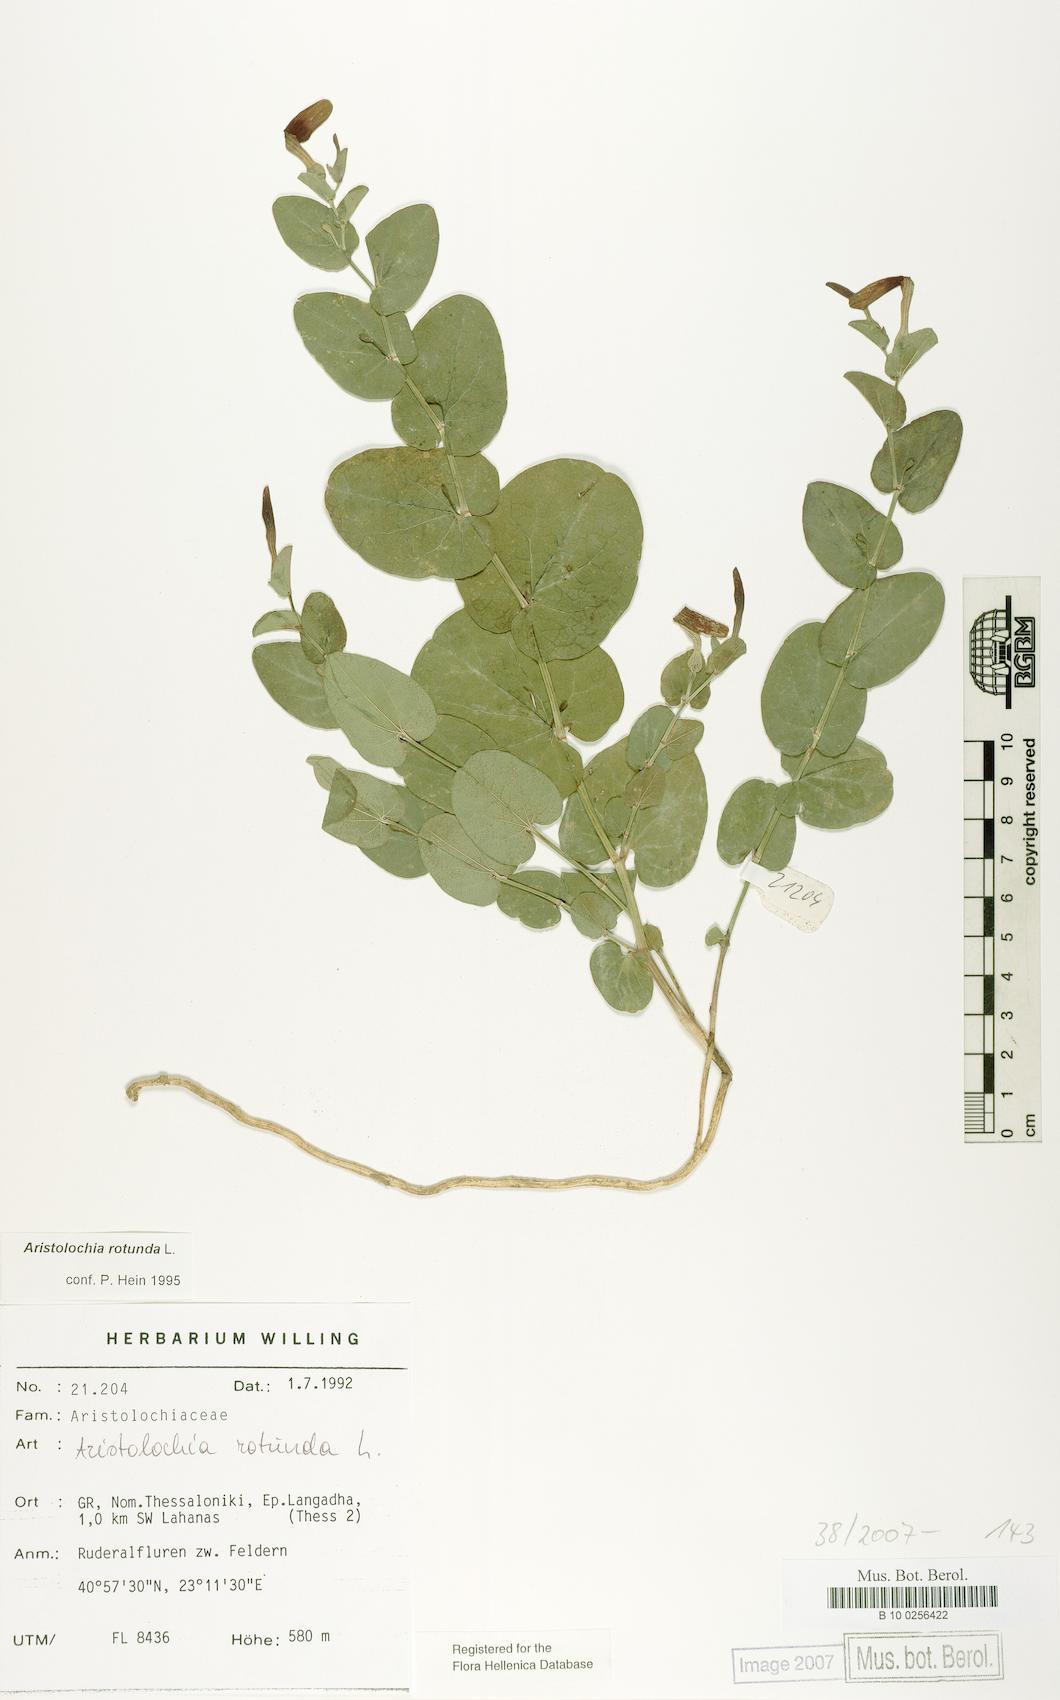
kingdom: Plantae
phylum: Tracheophyta
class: Magnoliopsida
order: Piperales
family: Aristolochiaceae
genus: Aristolochia
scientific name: Aristolochia rotunda
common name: Smearwort
